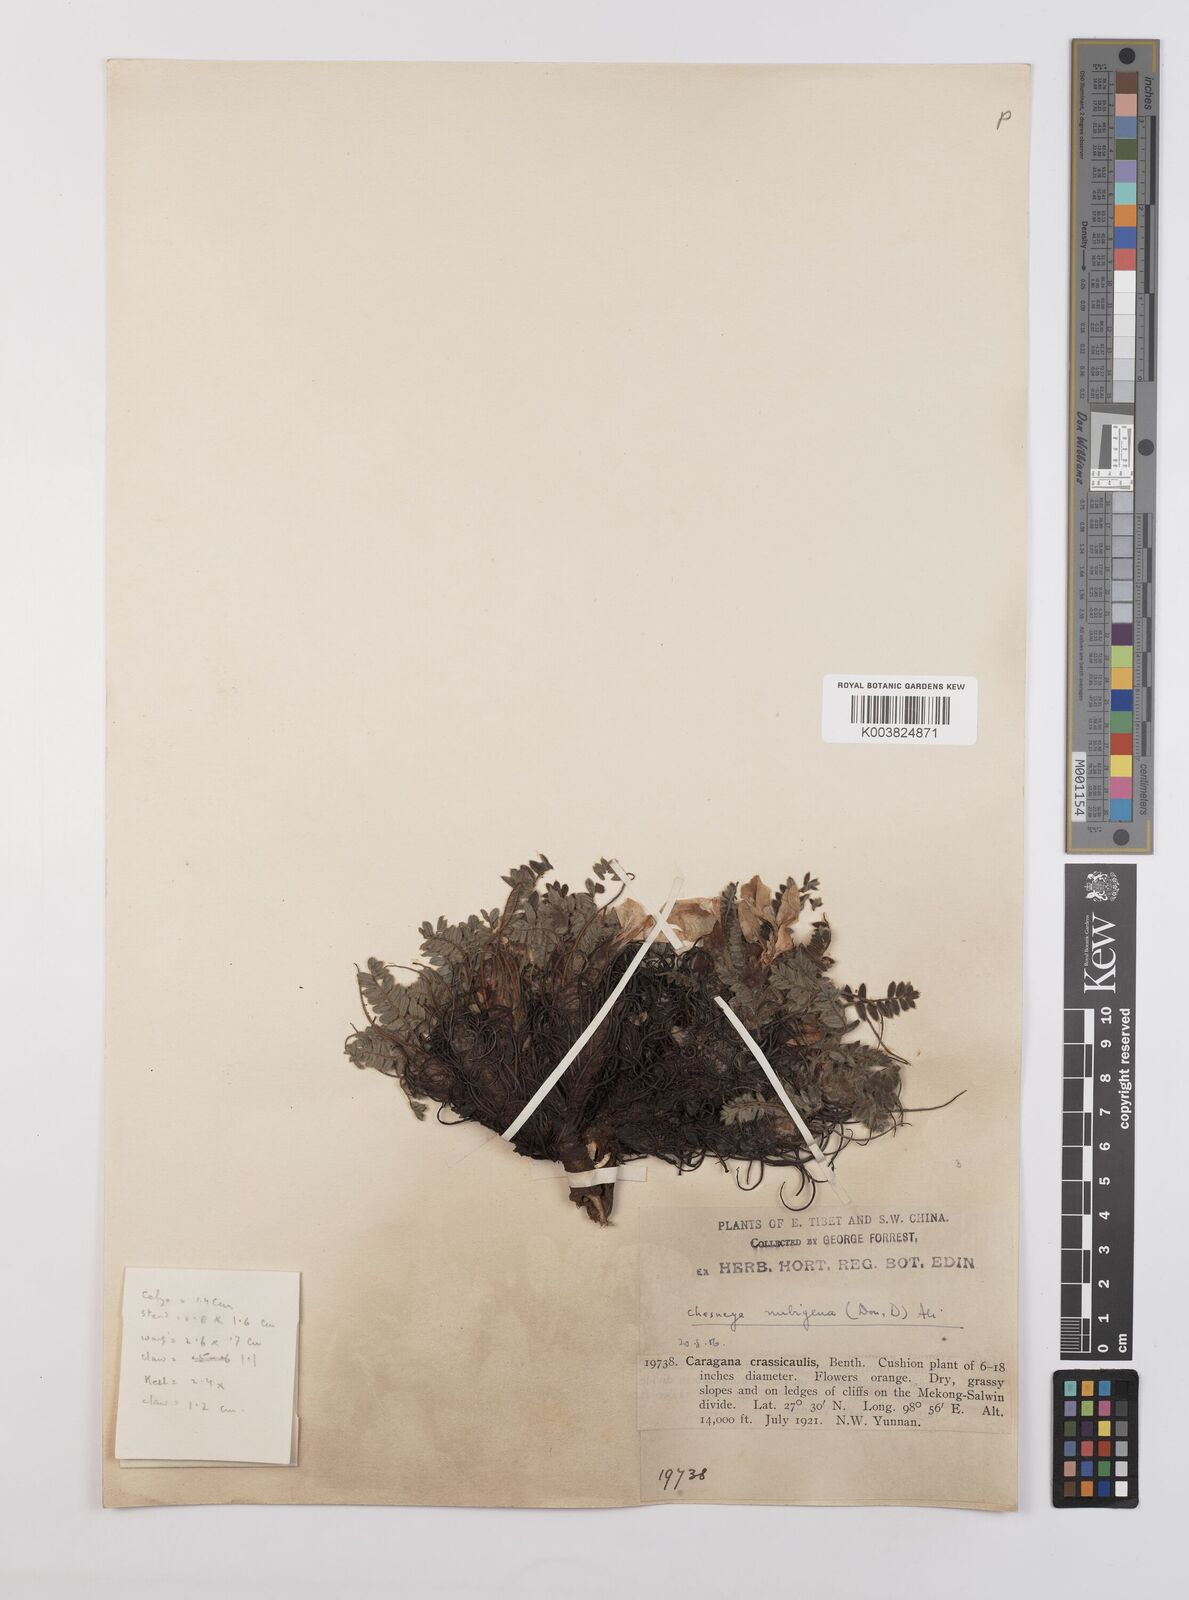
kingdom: Plantae
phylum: Tracheophyta
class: Magnoliopsida
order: Fabales
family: Fabaceae
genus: Chesneya
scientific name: Chesneya nubigena
